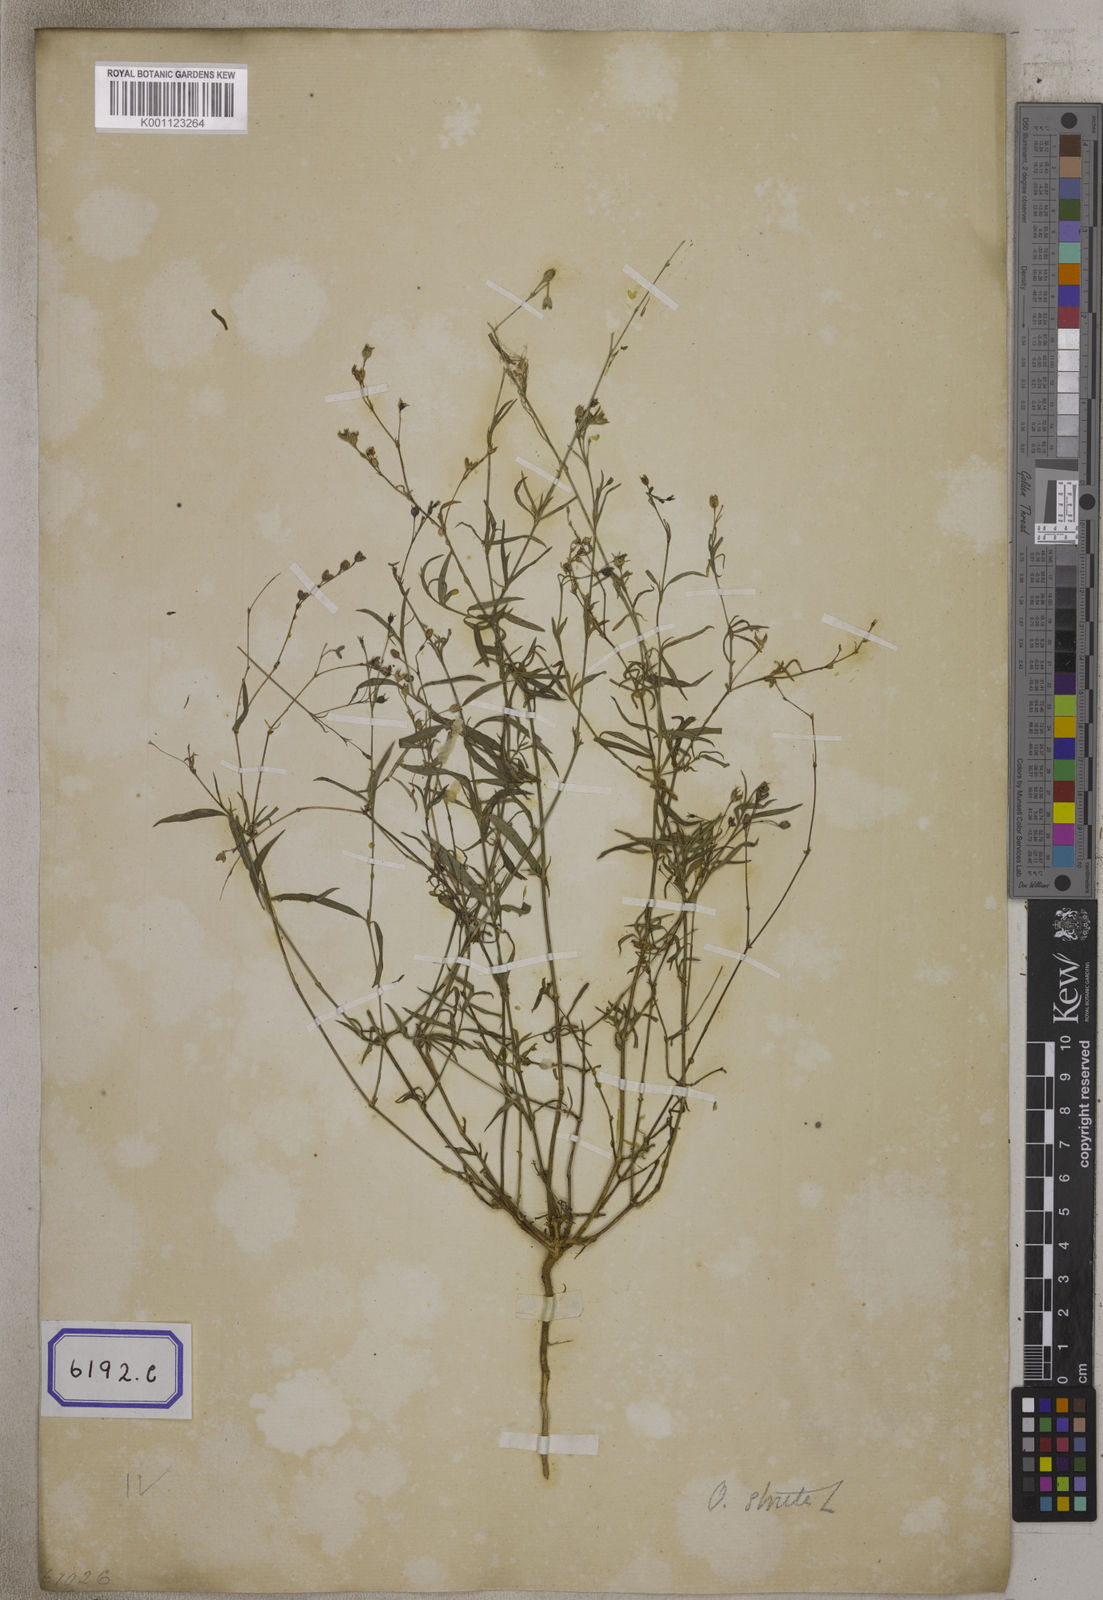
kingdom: Plantae
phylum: Tracheophyta
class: Magnoliopsida
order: Gentianales
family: Rubiaceae
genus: Hedyotis
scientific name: Hedyotis
